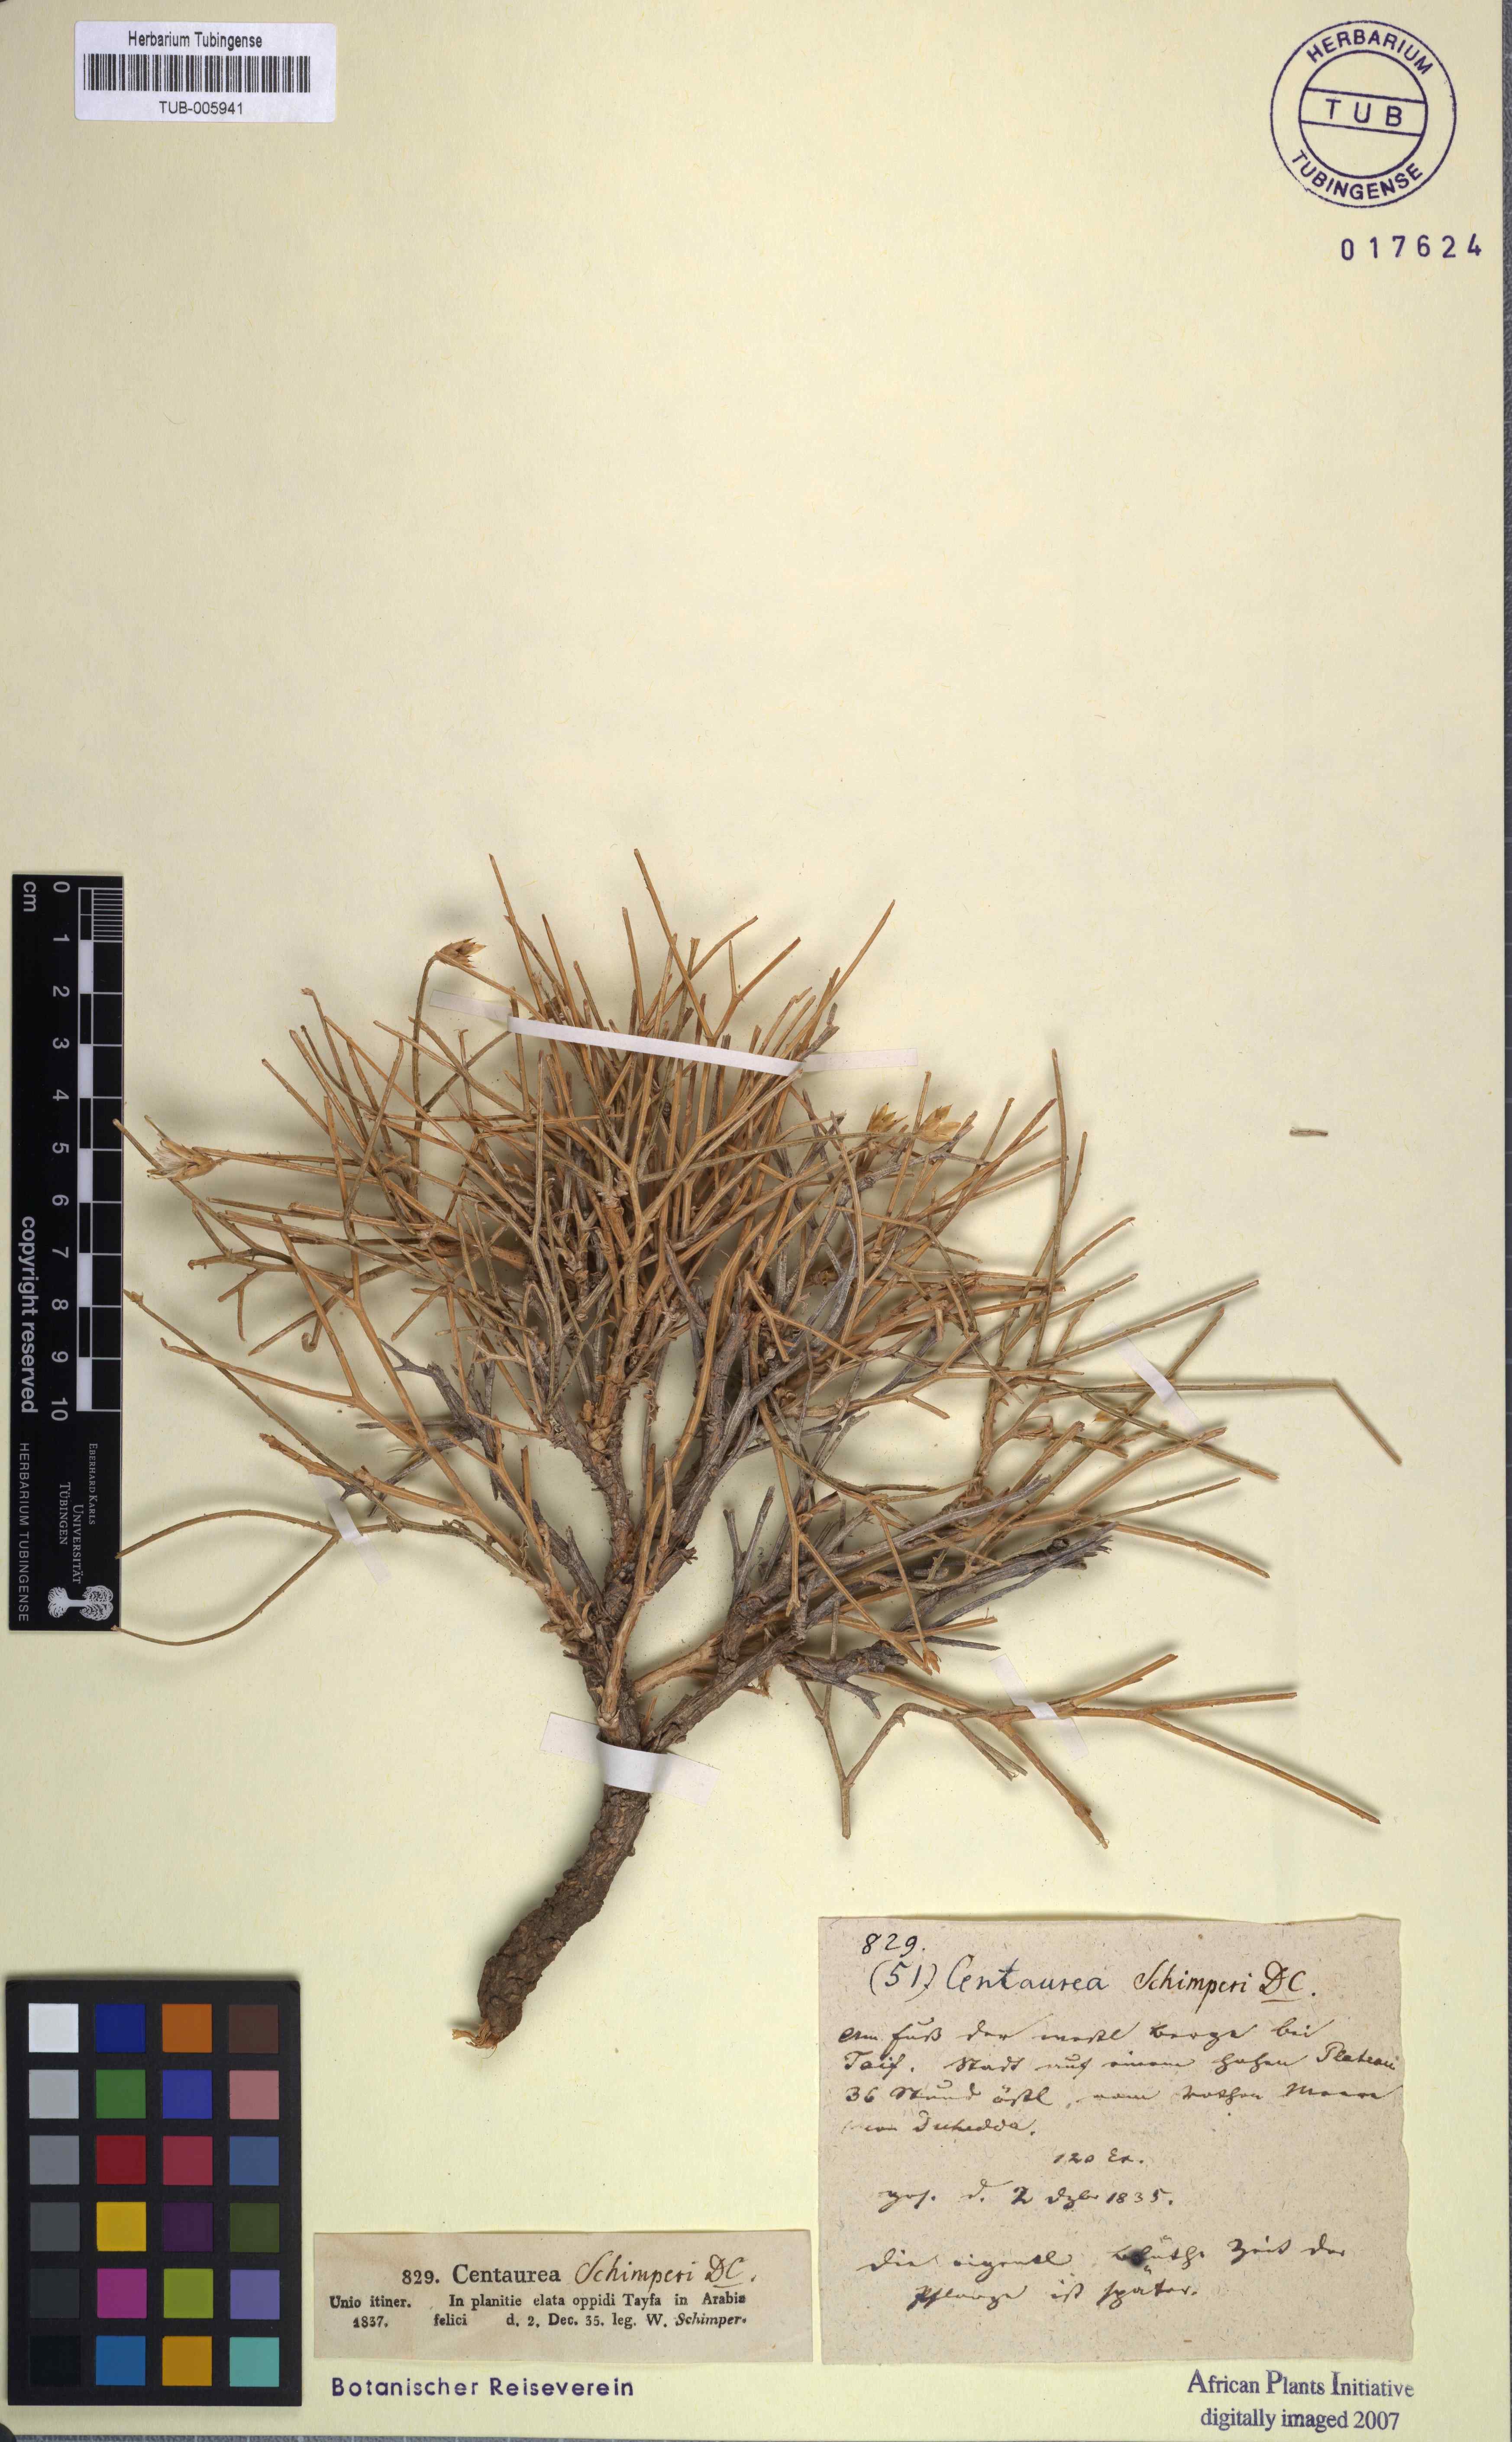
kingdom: Plantae
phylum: Tracheophyta
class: Magnoliopsida
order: Asterales
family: Asteraceae
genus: Centaurea
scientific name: Centaurea schimperi
